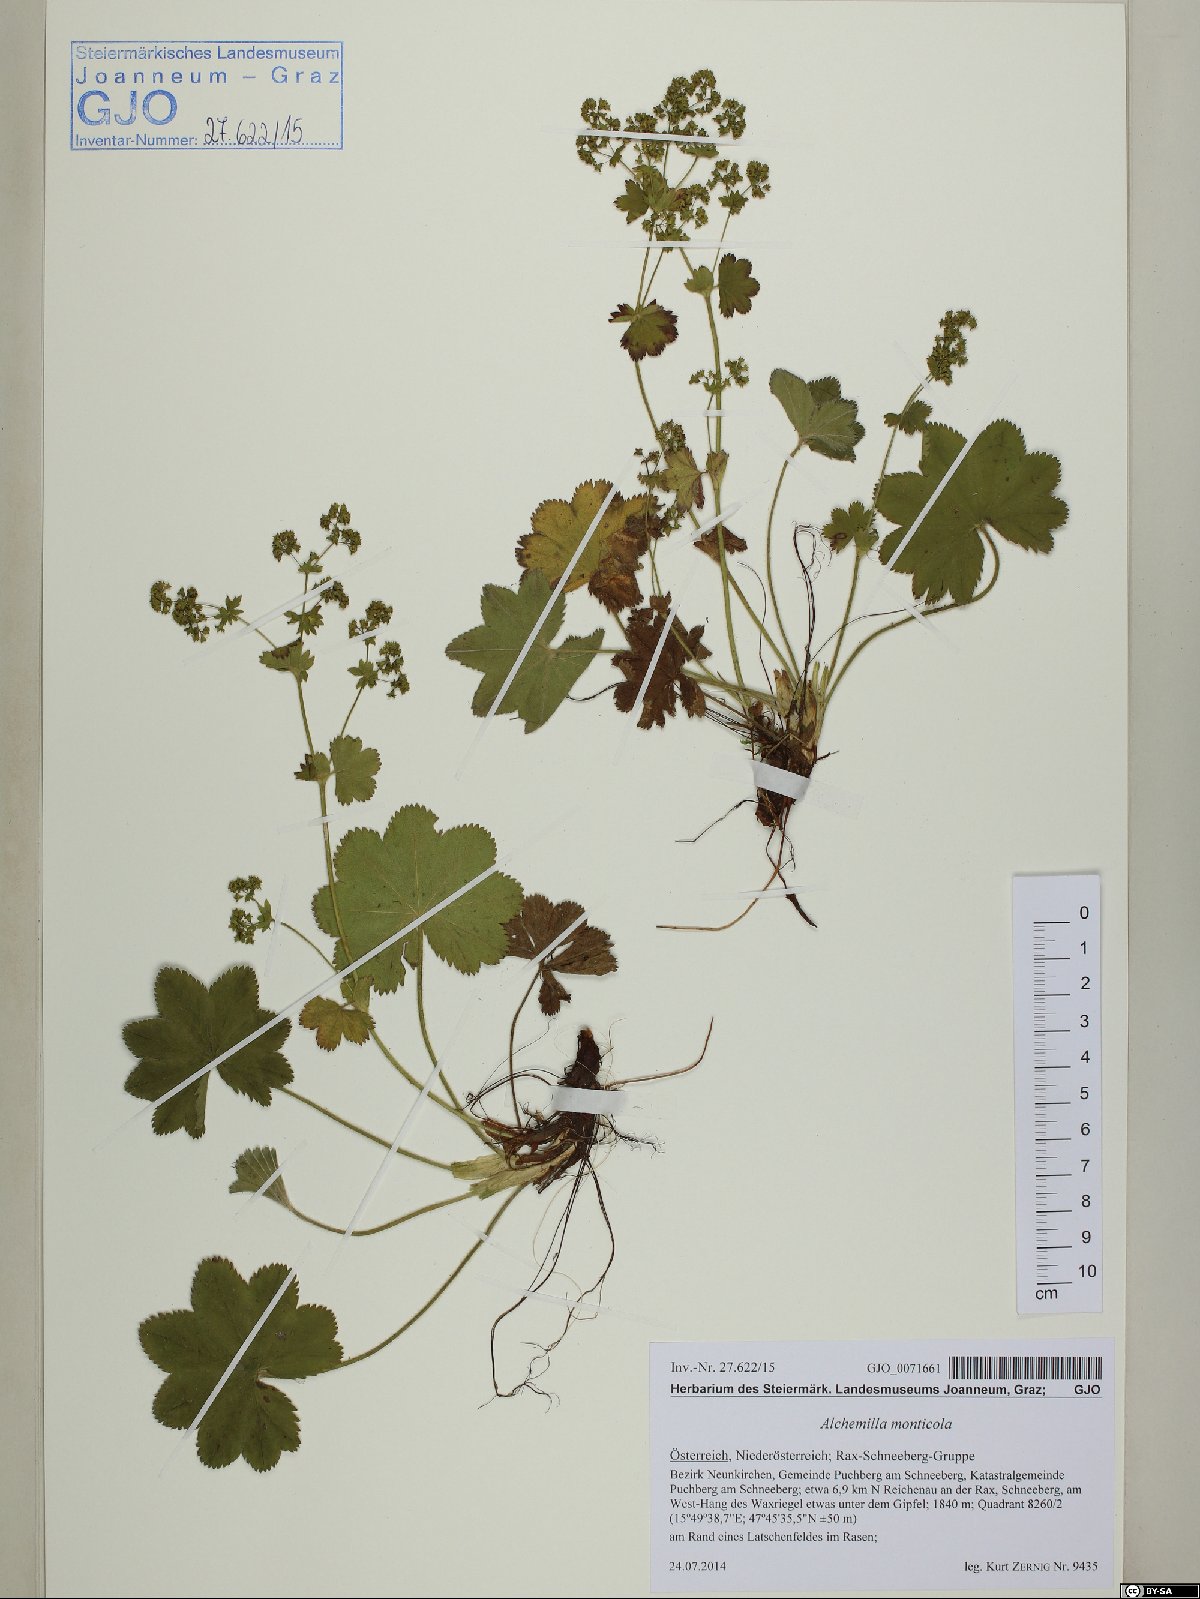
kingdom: Plantae
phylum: Tracheophyta
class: Magnoliopsida
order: Rosales
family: Rosaceae
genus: Alchemilla
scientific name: Alchemilla monticola
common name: Hairy lady's mantle
